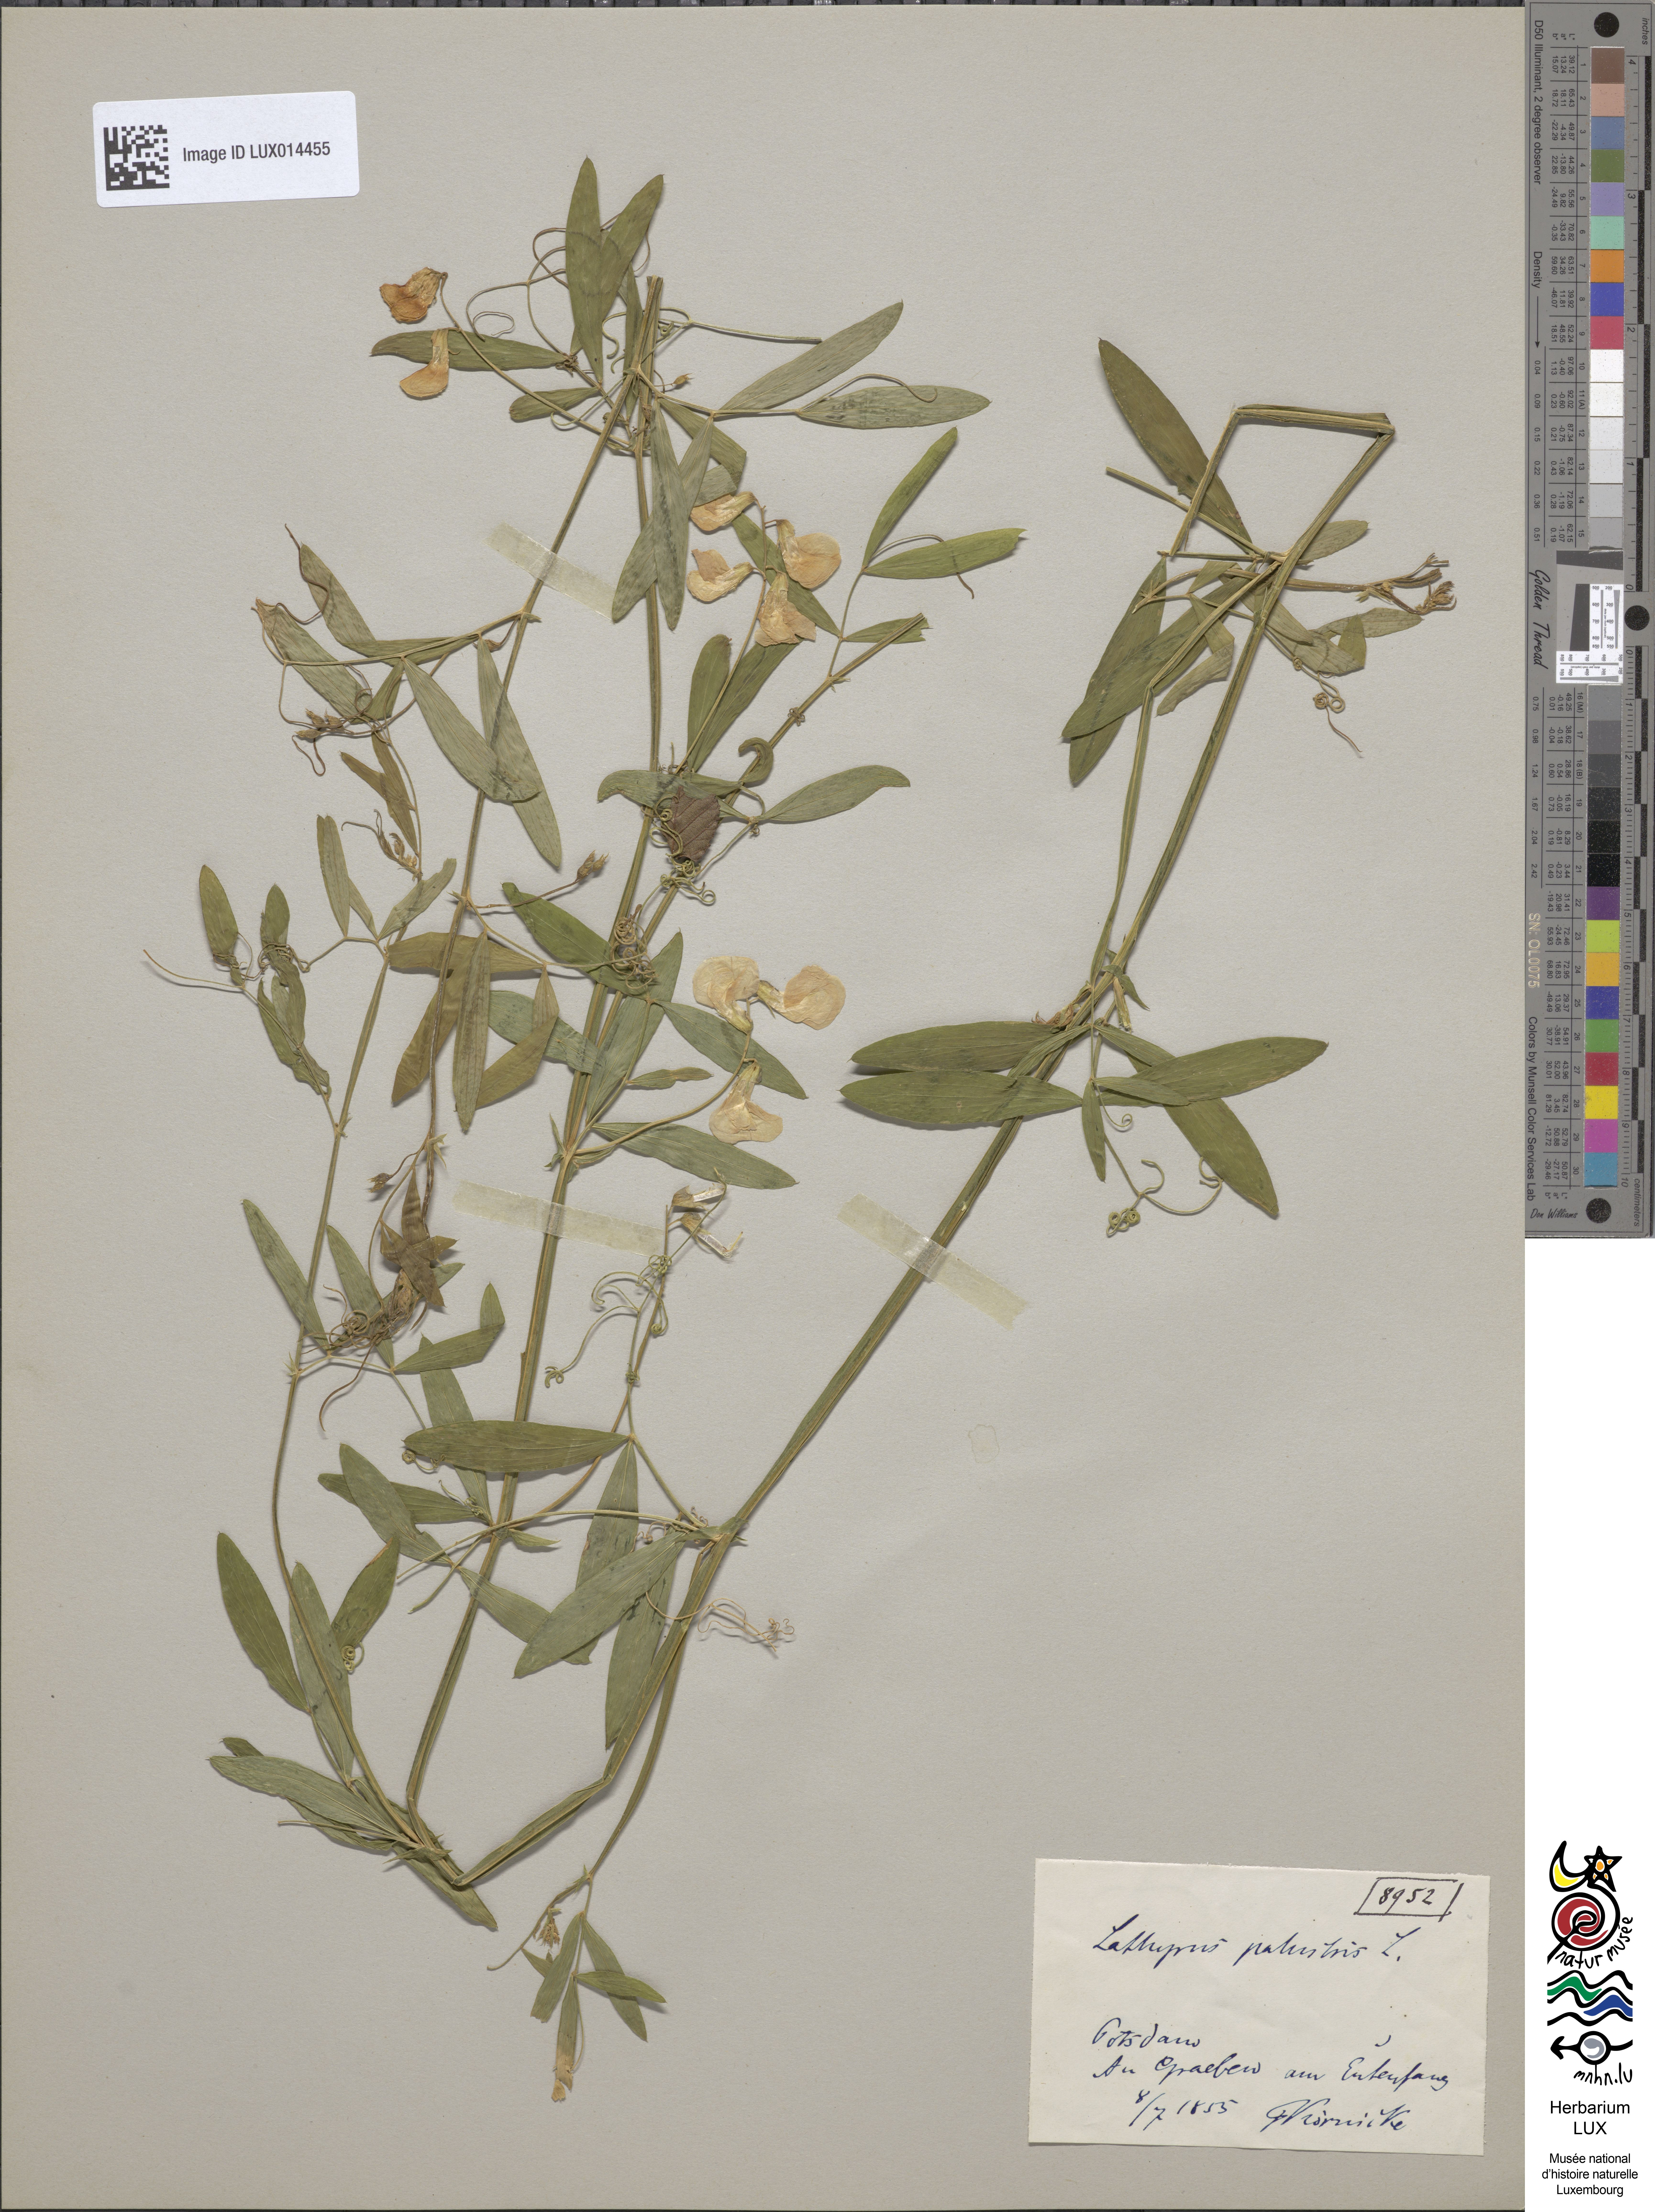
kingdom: Plantae
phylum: Tracheophyta
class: Magnoliopsida
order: Fabales
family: Fabaceae
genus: Lathyrus
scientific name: Lathyrus palustris
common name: Marsh pea
